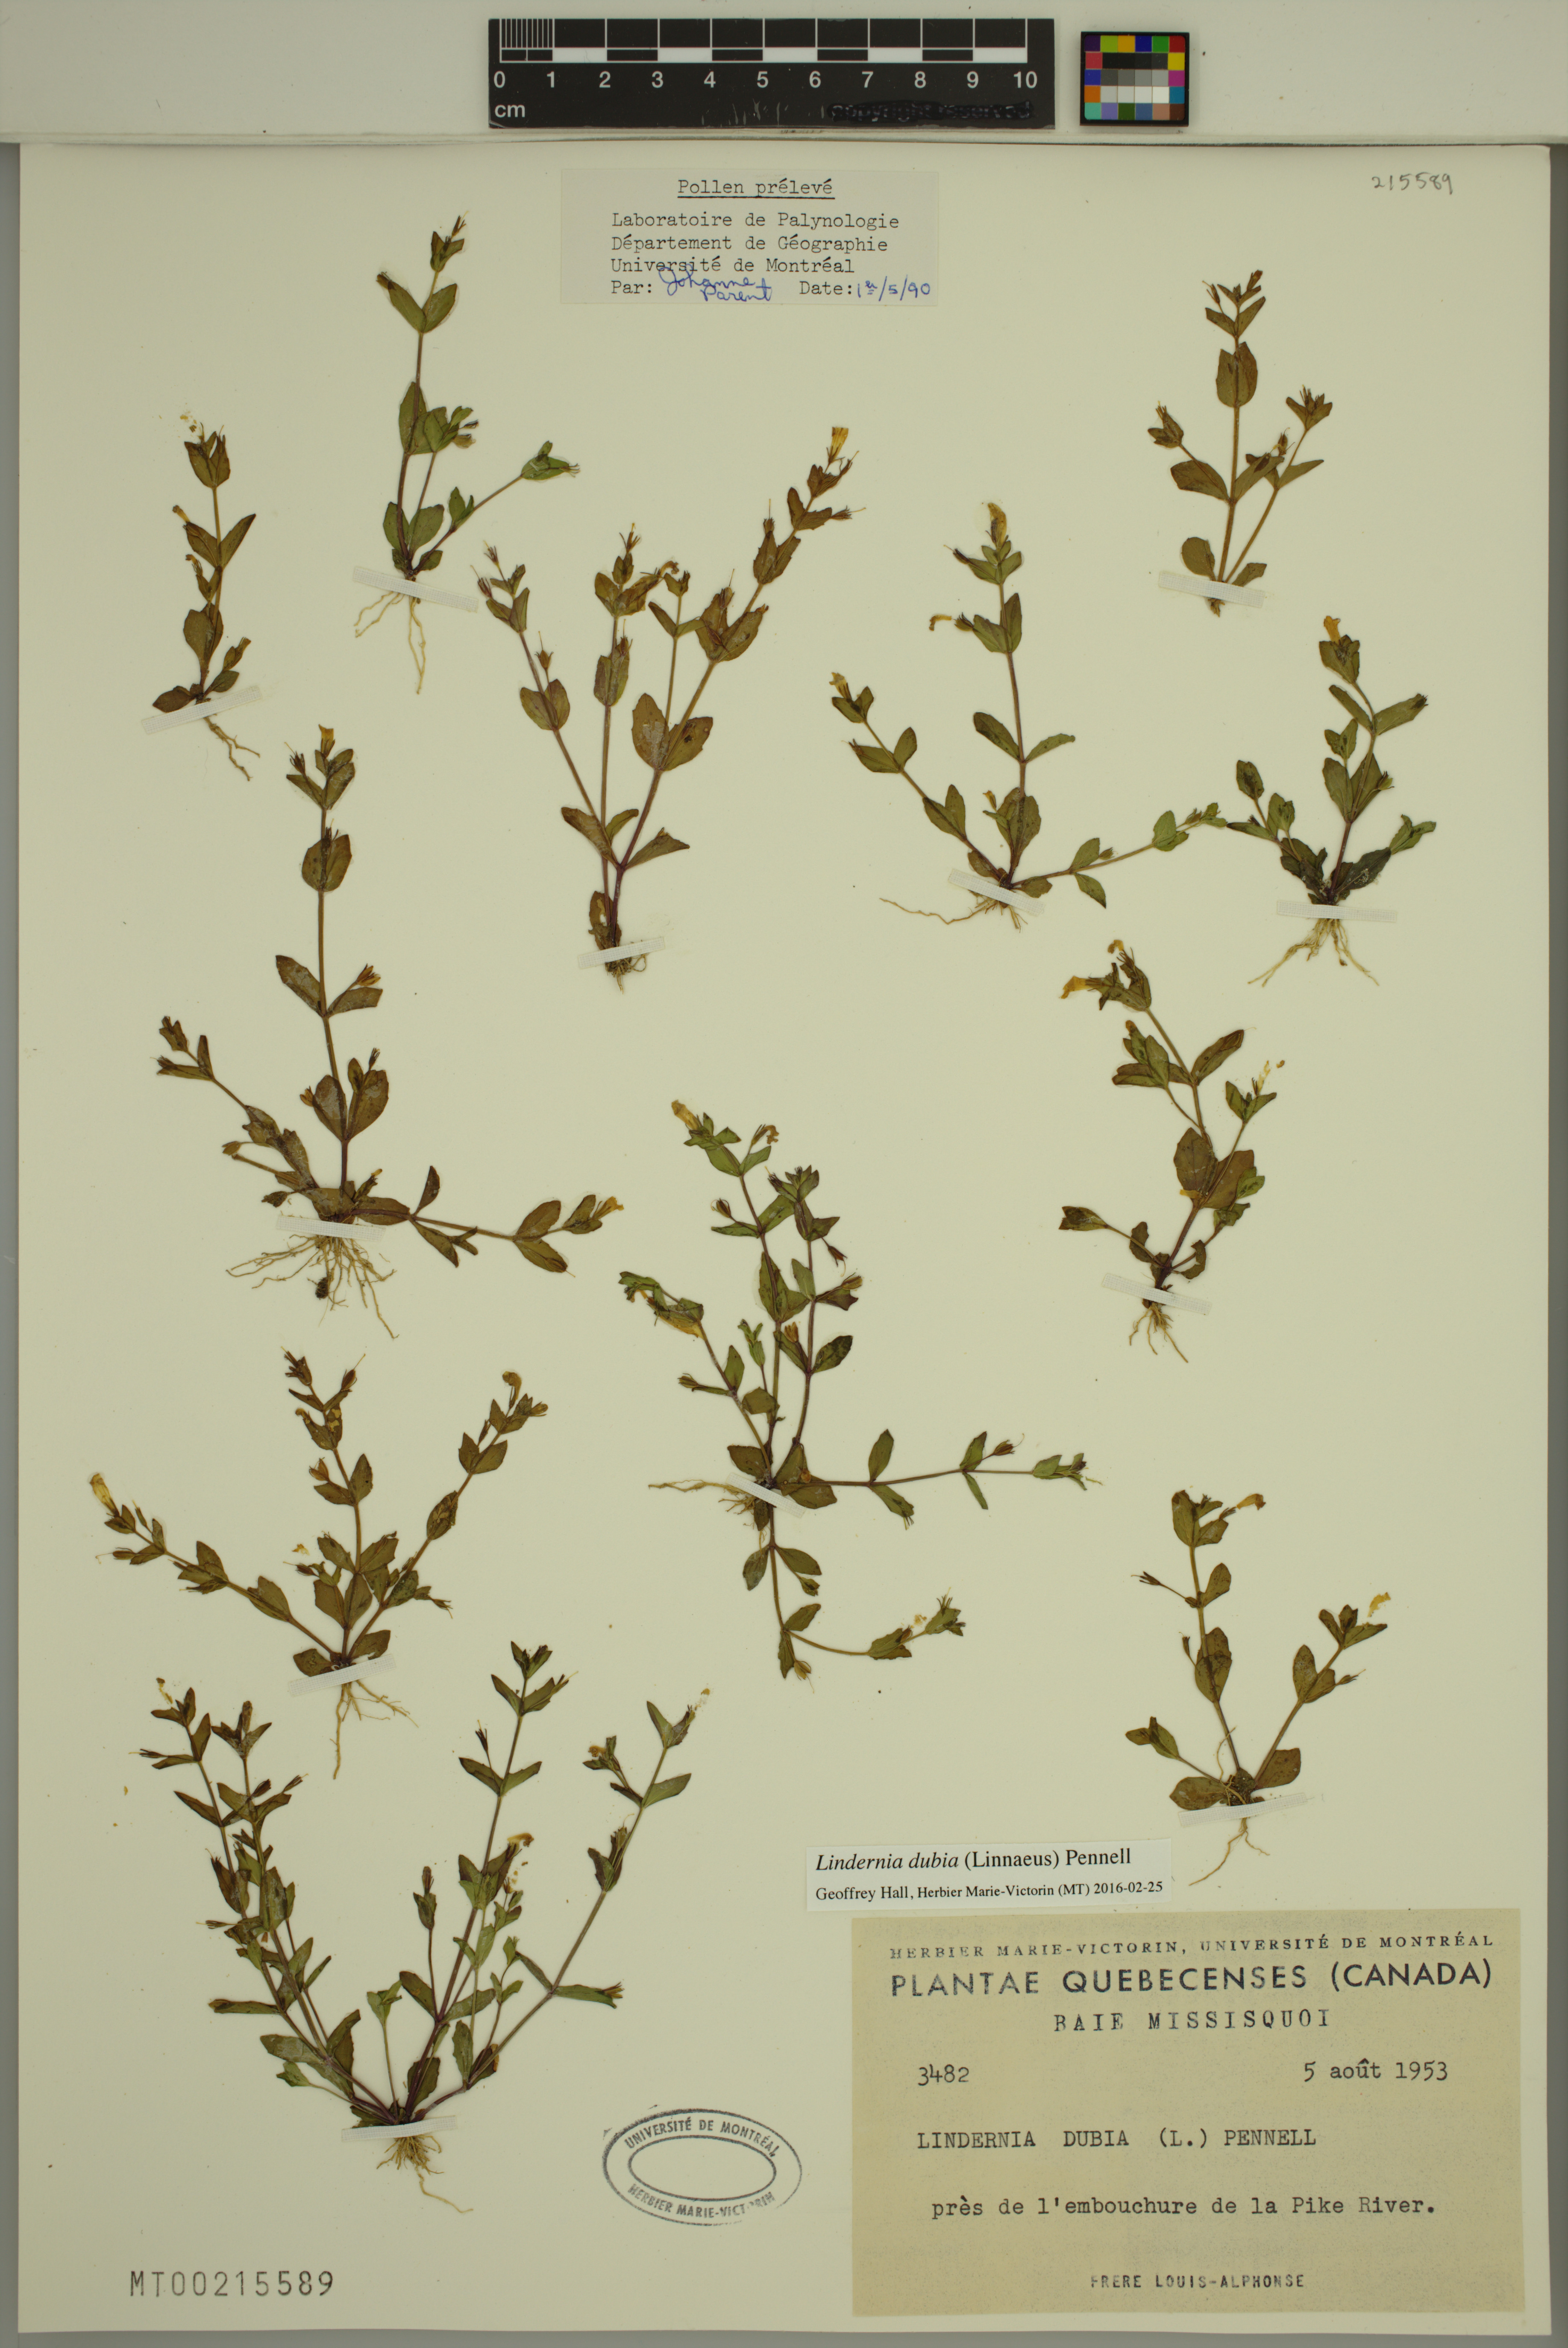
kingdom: Plantae
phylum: Tracheophyta
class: Magnoliopsida
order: Lamiales
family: Linderniaceae
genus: Lindernia
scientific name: Lindernia dubia
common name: Annual false pimpernel
